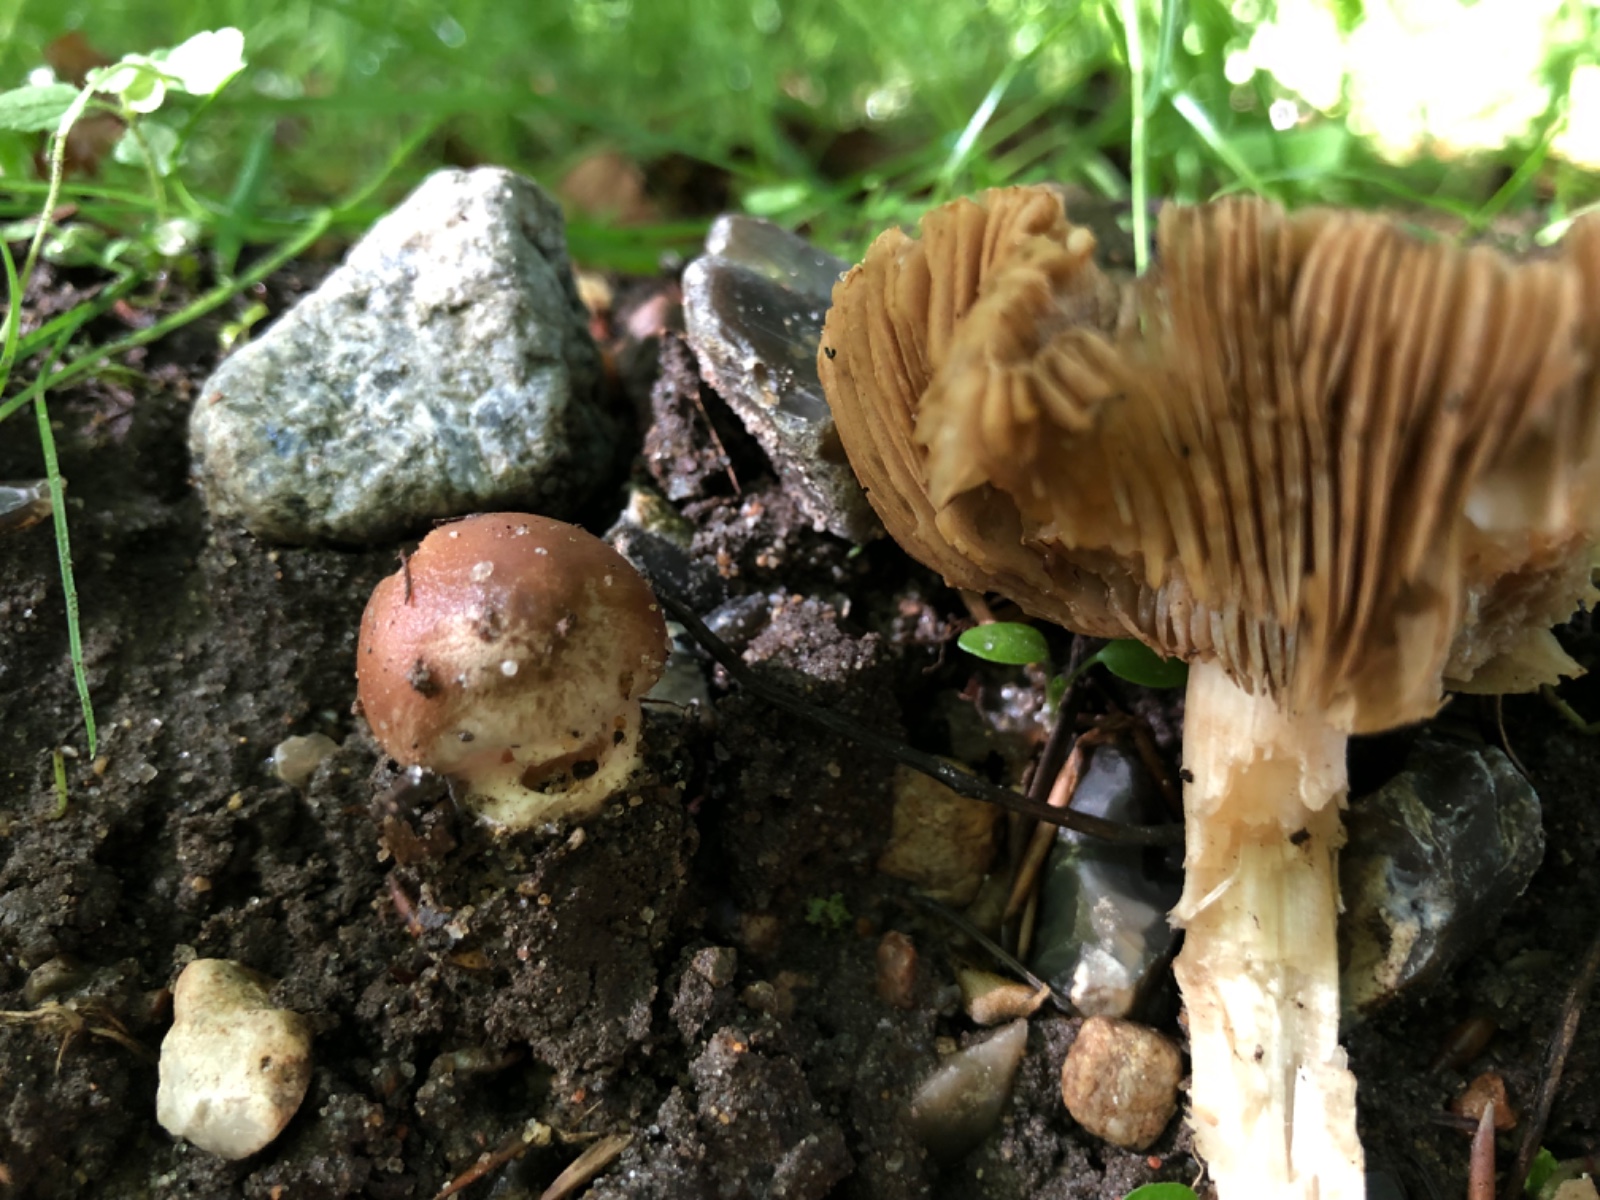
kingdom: Fungi
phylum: Basidiomycota
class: Agaricomycetes
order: Agaricales
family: Tubariaceae
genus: Cyclocybe
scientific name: Cyclocybe erebia
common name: mørk agerhat
